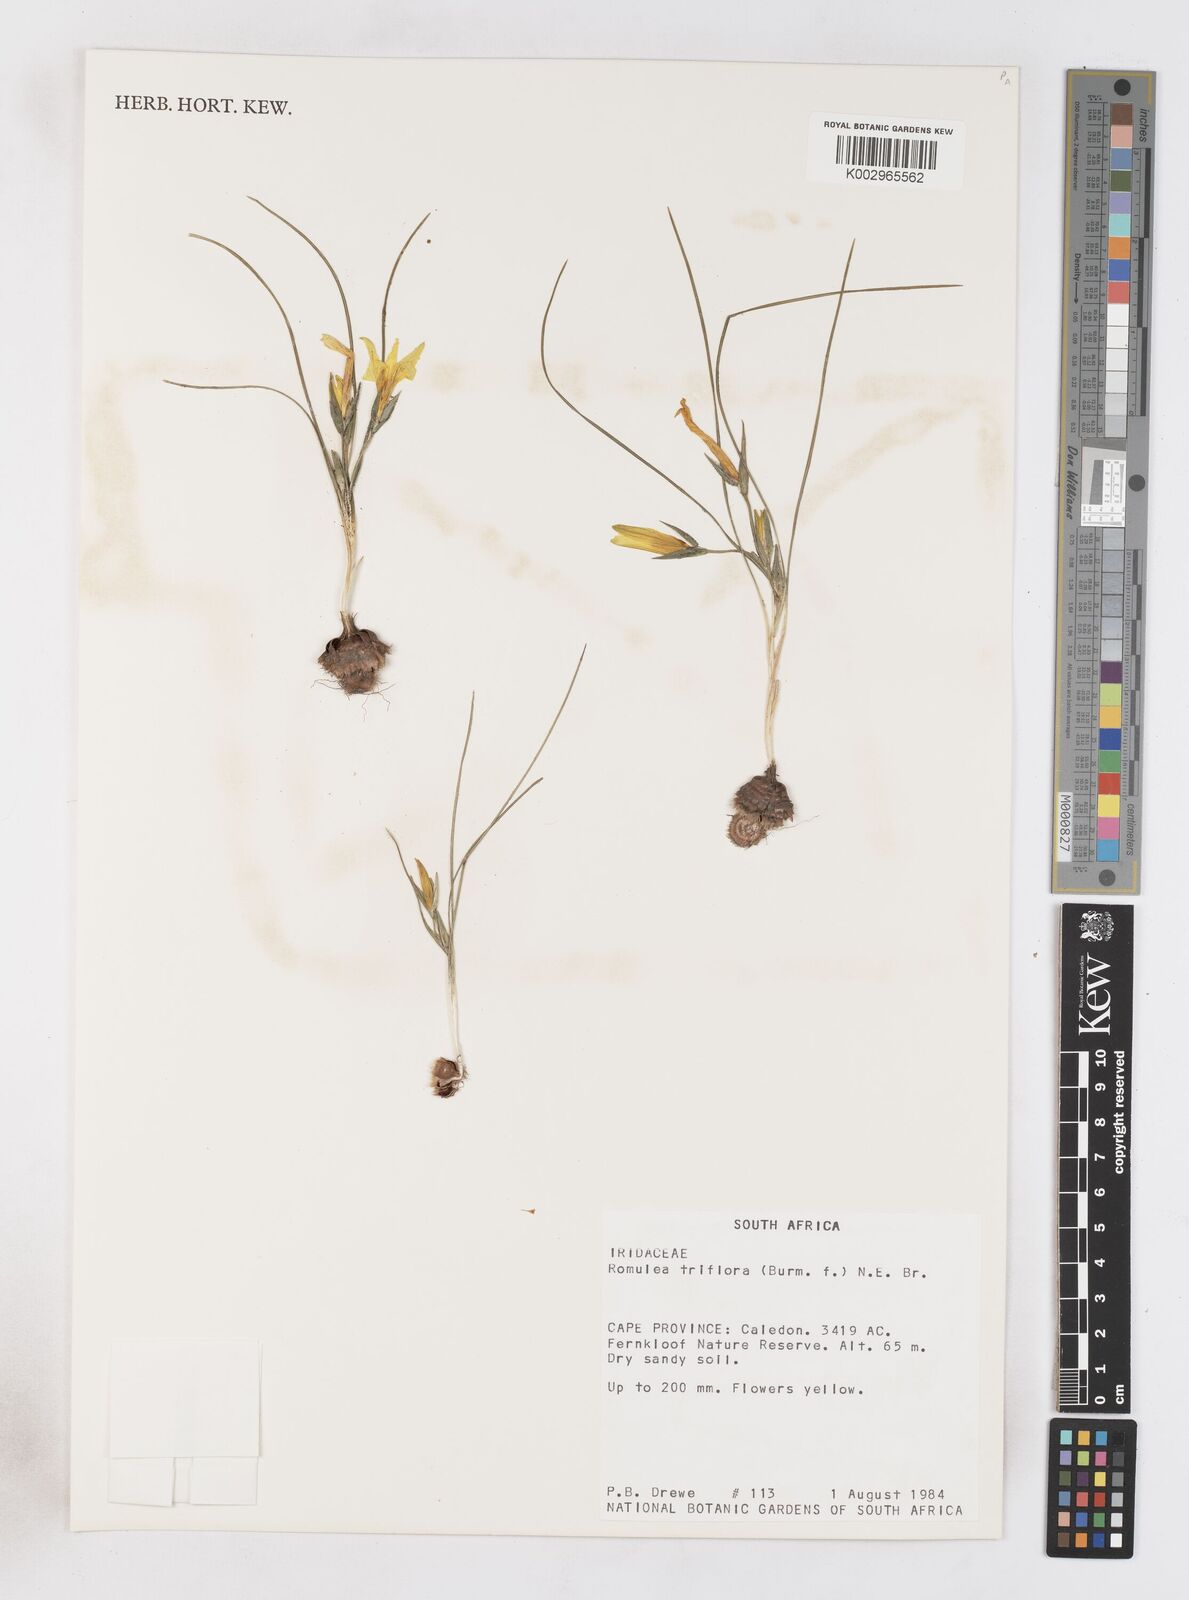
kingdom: Plantae
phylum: Tracheophyta
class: Liliopsida
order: Asparagales
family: Iridaceae
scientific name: Iridaceae
